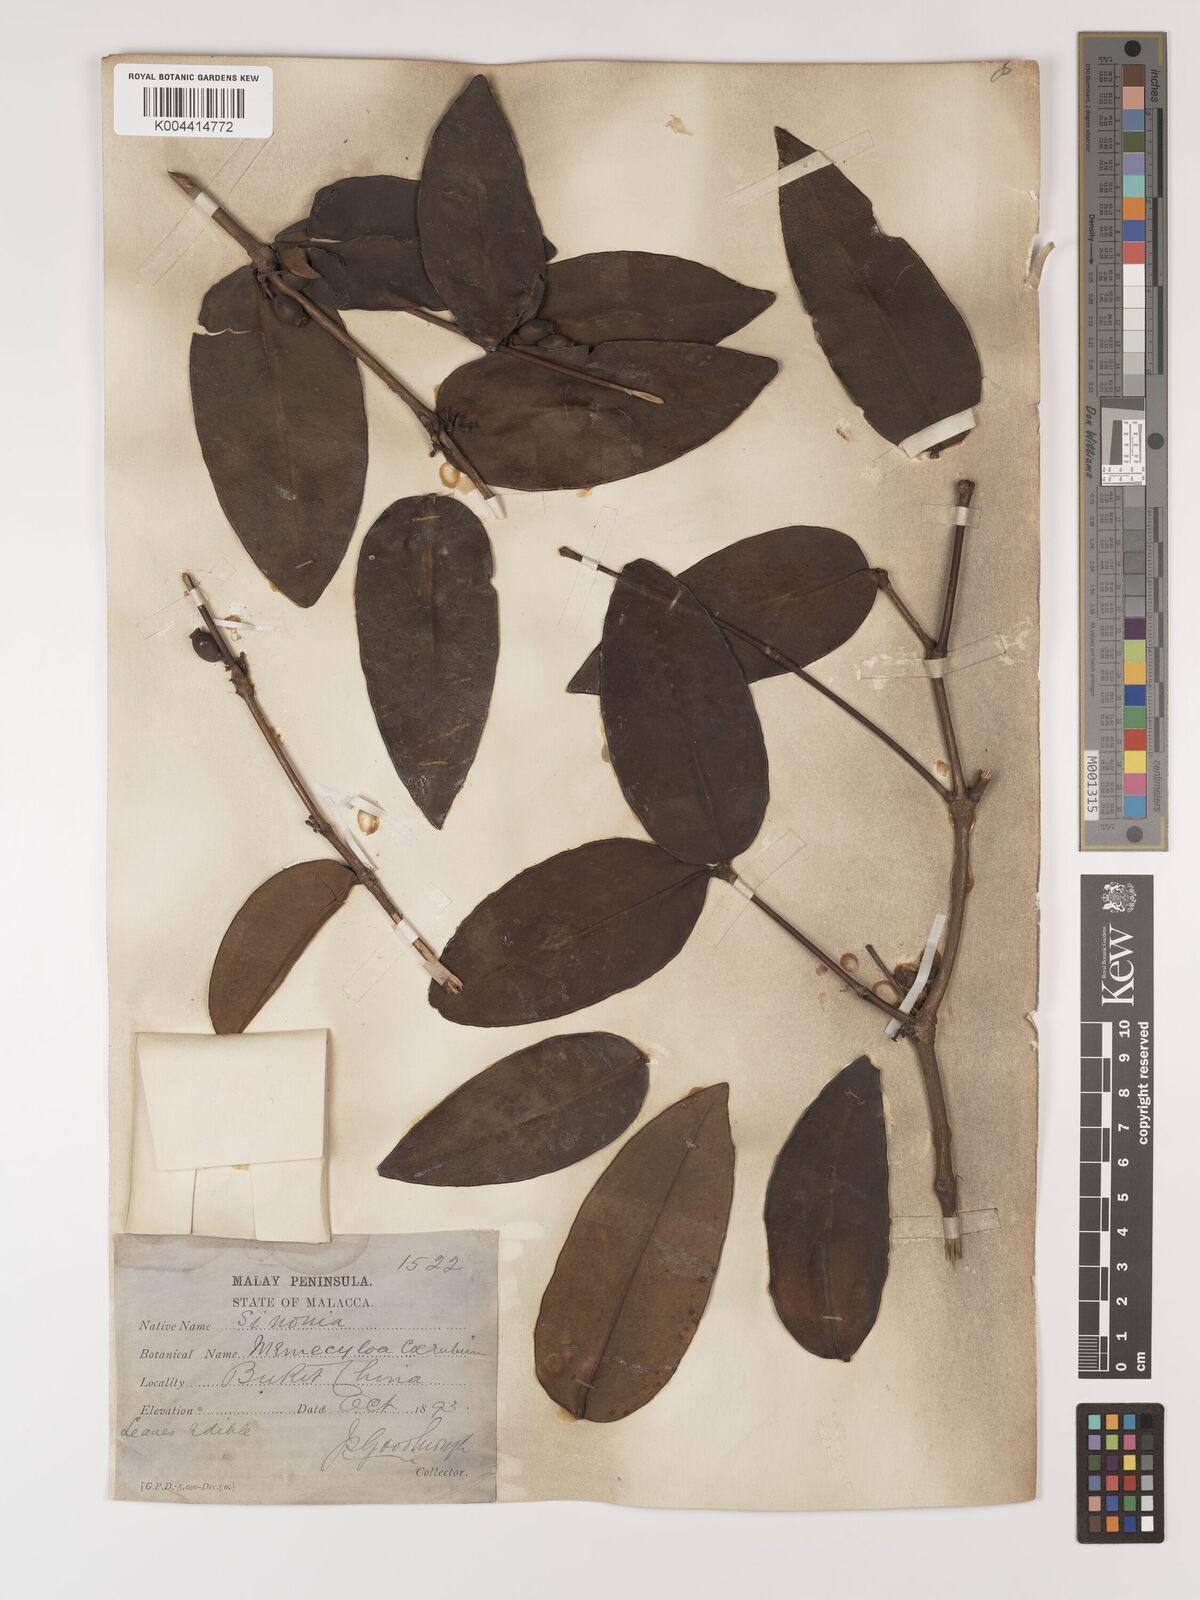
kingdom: Plantae
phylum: Tracheophyta
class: Magnoliopsida
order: Myrtales
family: Melastomataceae
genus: Memecylon
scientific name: Memecylon
